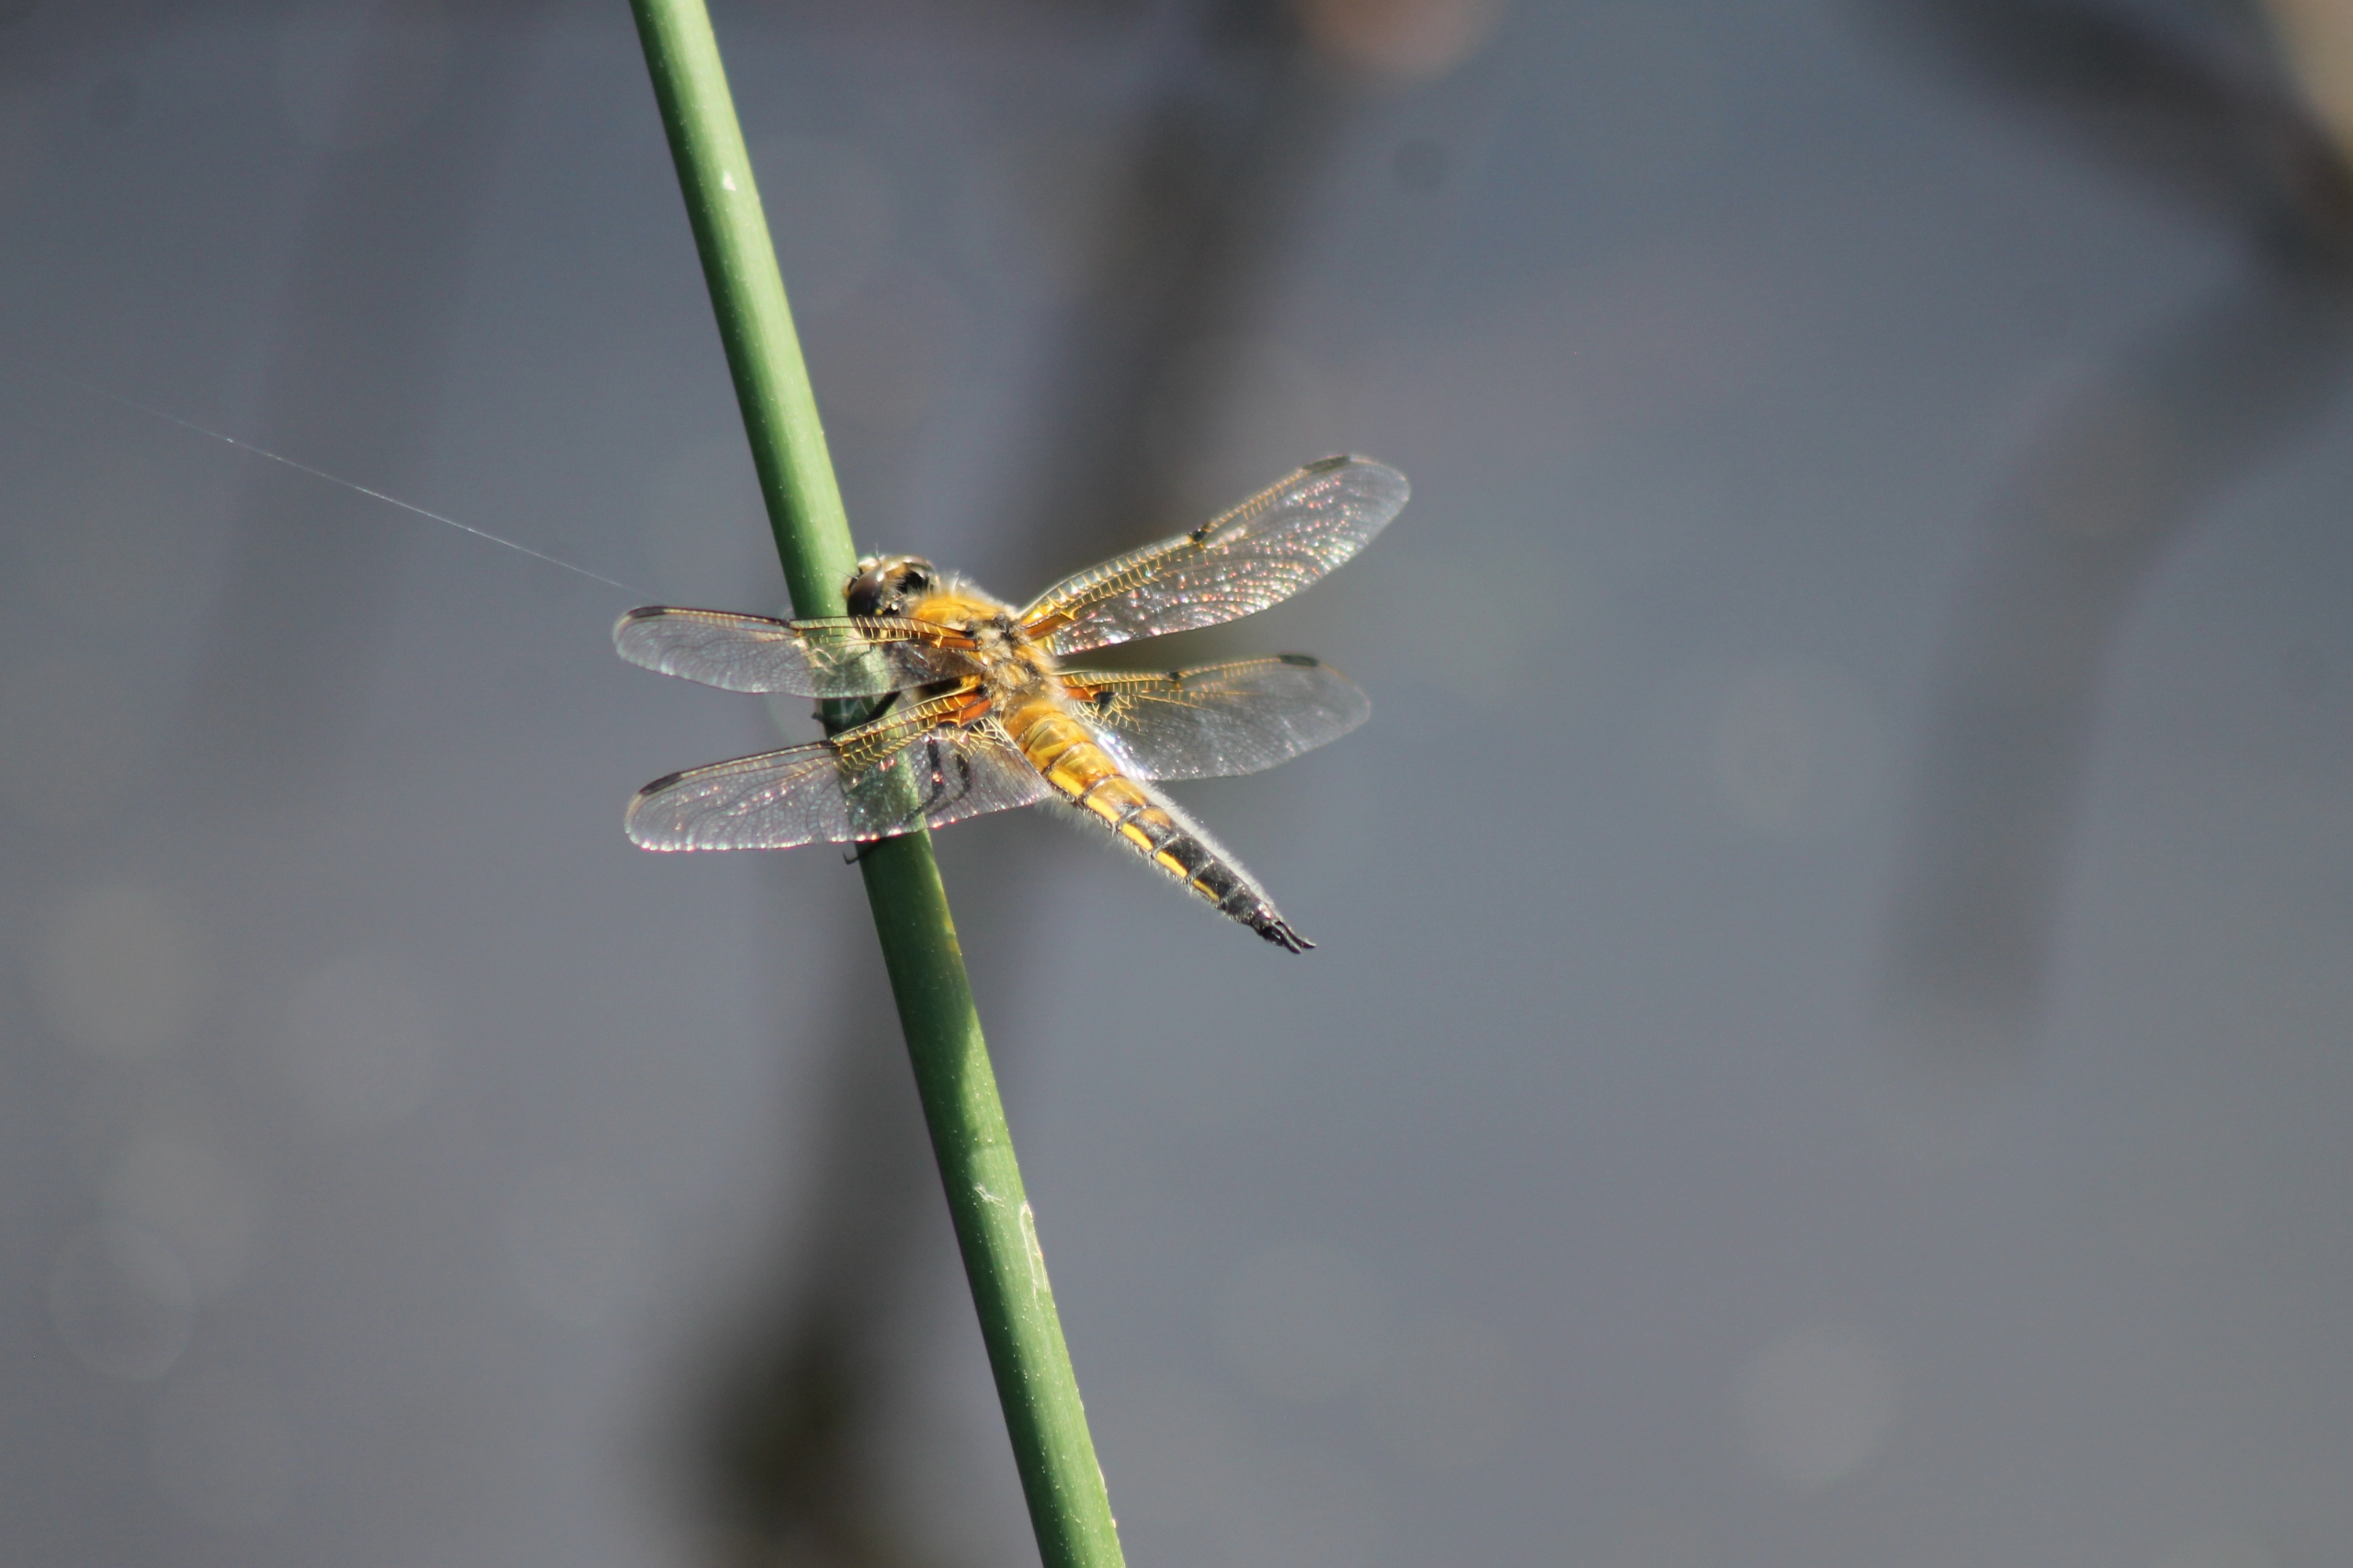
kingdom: Animalia
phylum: Arthropoda
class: Insecta
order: Odonata
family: Libellulidae
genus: Libellula
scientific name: Libellula quadrimaculata
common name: Fireplettet libel
